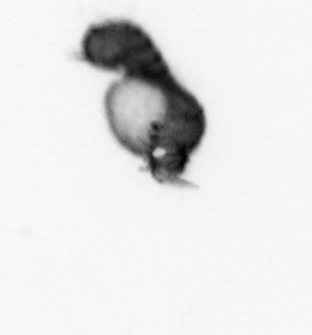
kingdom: Animalia
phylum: Annelida
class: Polychaeta
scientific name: Polychaeta
